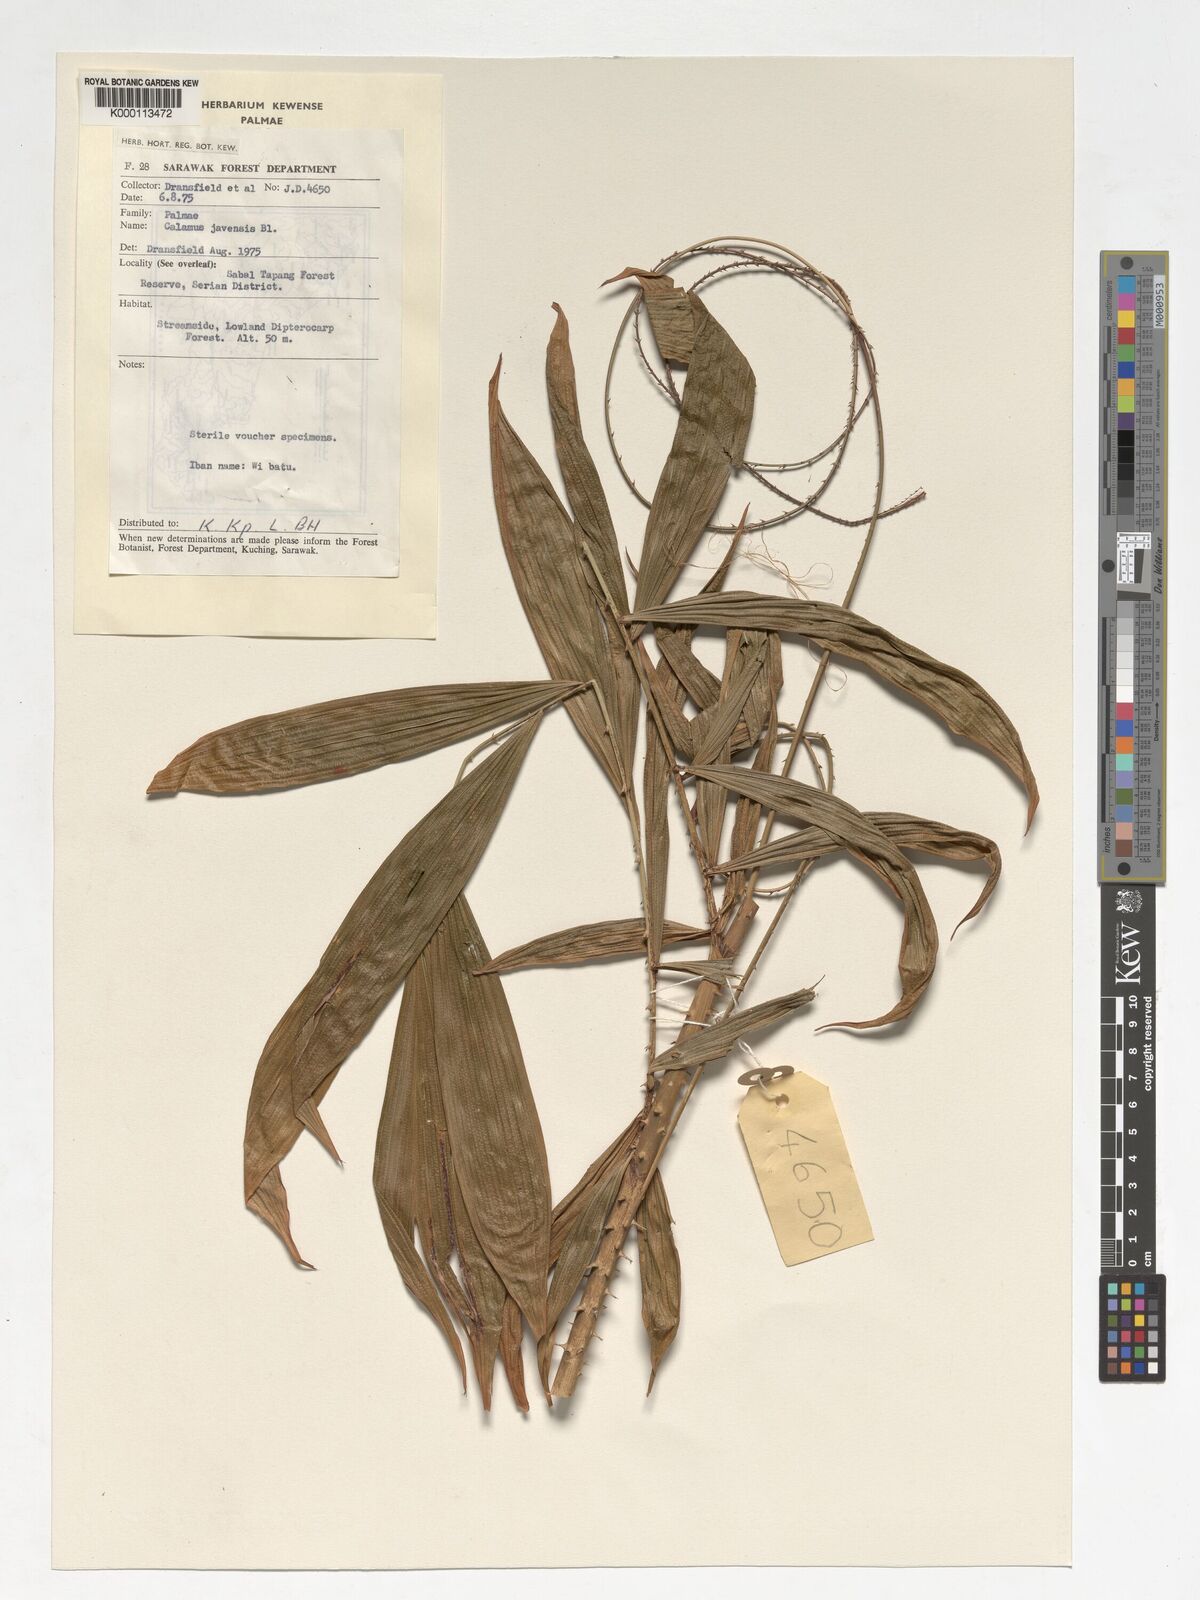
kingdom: Plantae
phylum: Tracheophyta
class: Liliopsida
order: Arecales
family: Arecaceae
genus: Calamus
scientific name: Calamus javensis
